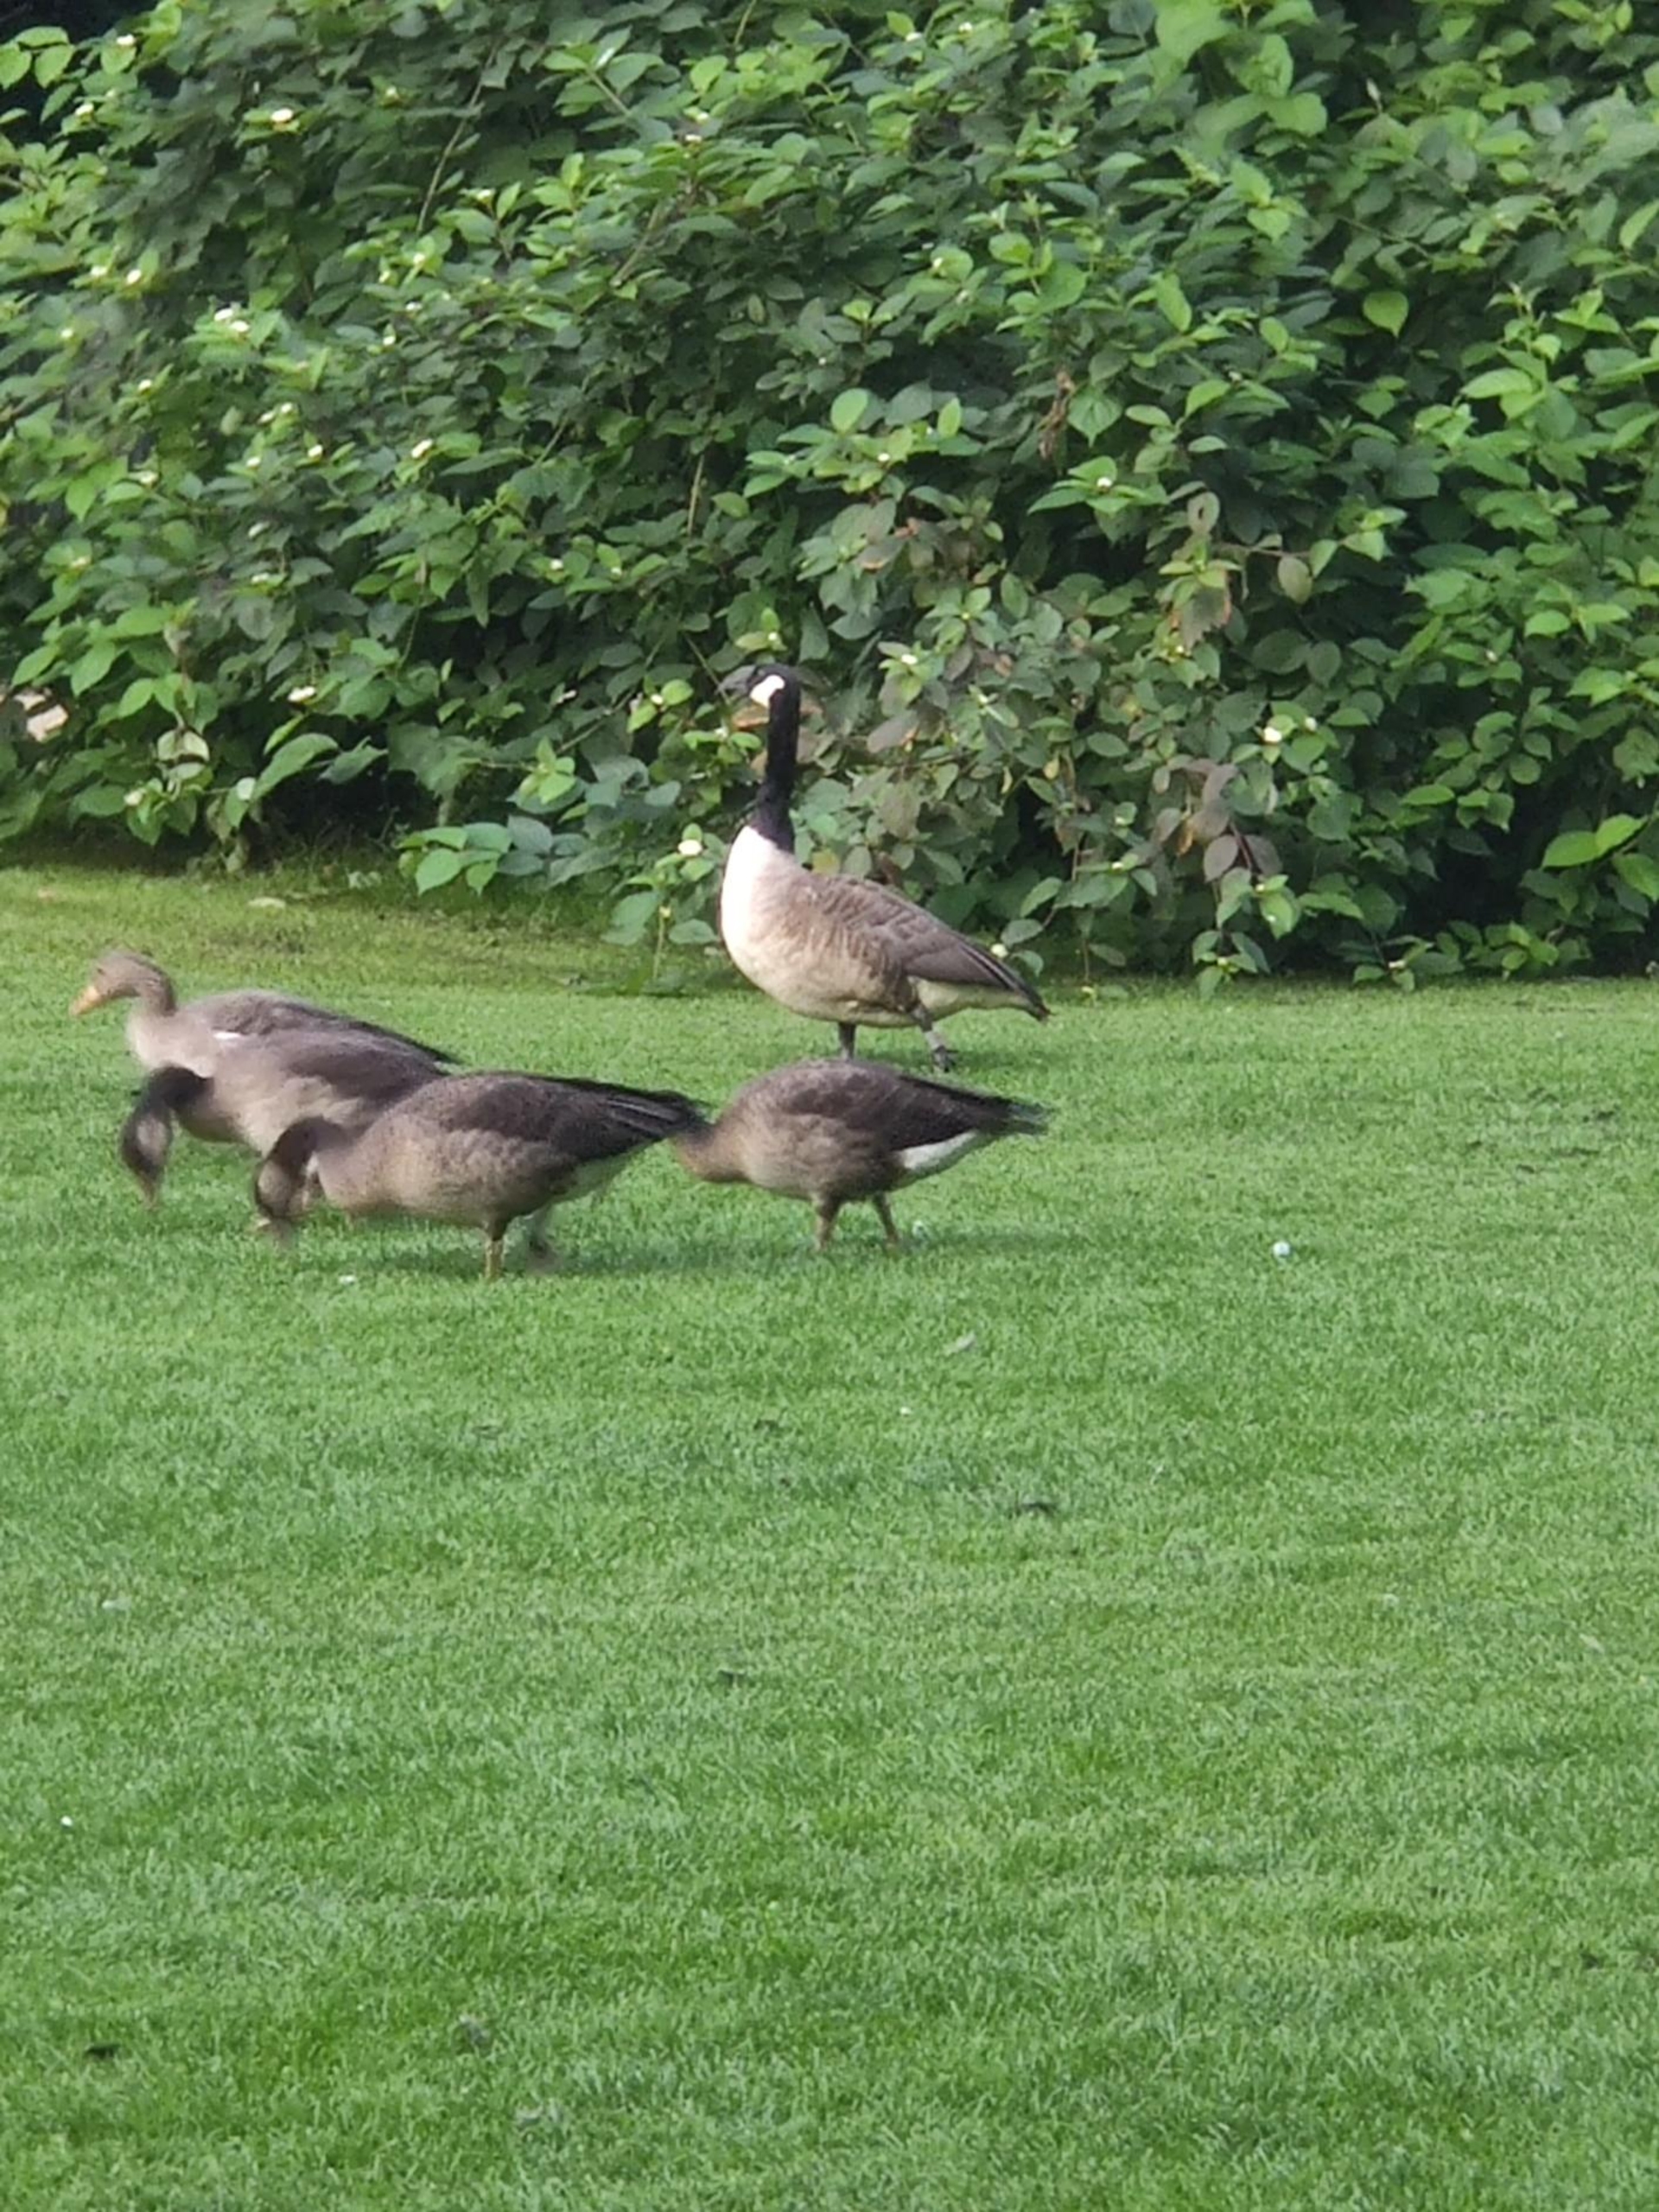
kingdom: Animalia
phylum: Chordata
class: Aves
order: Anseriformes
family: Anatidae
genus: Branta
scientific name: Branta canadensis
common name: Canadagås
